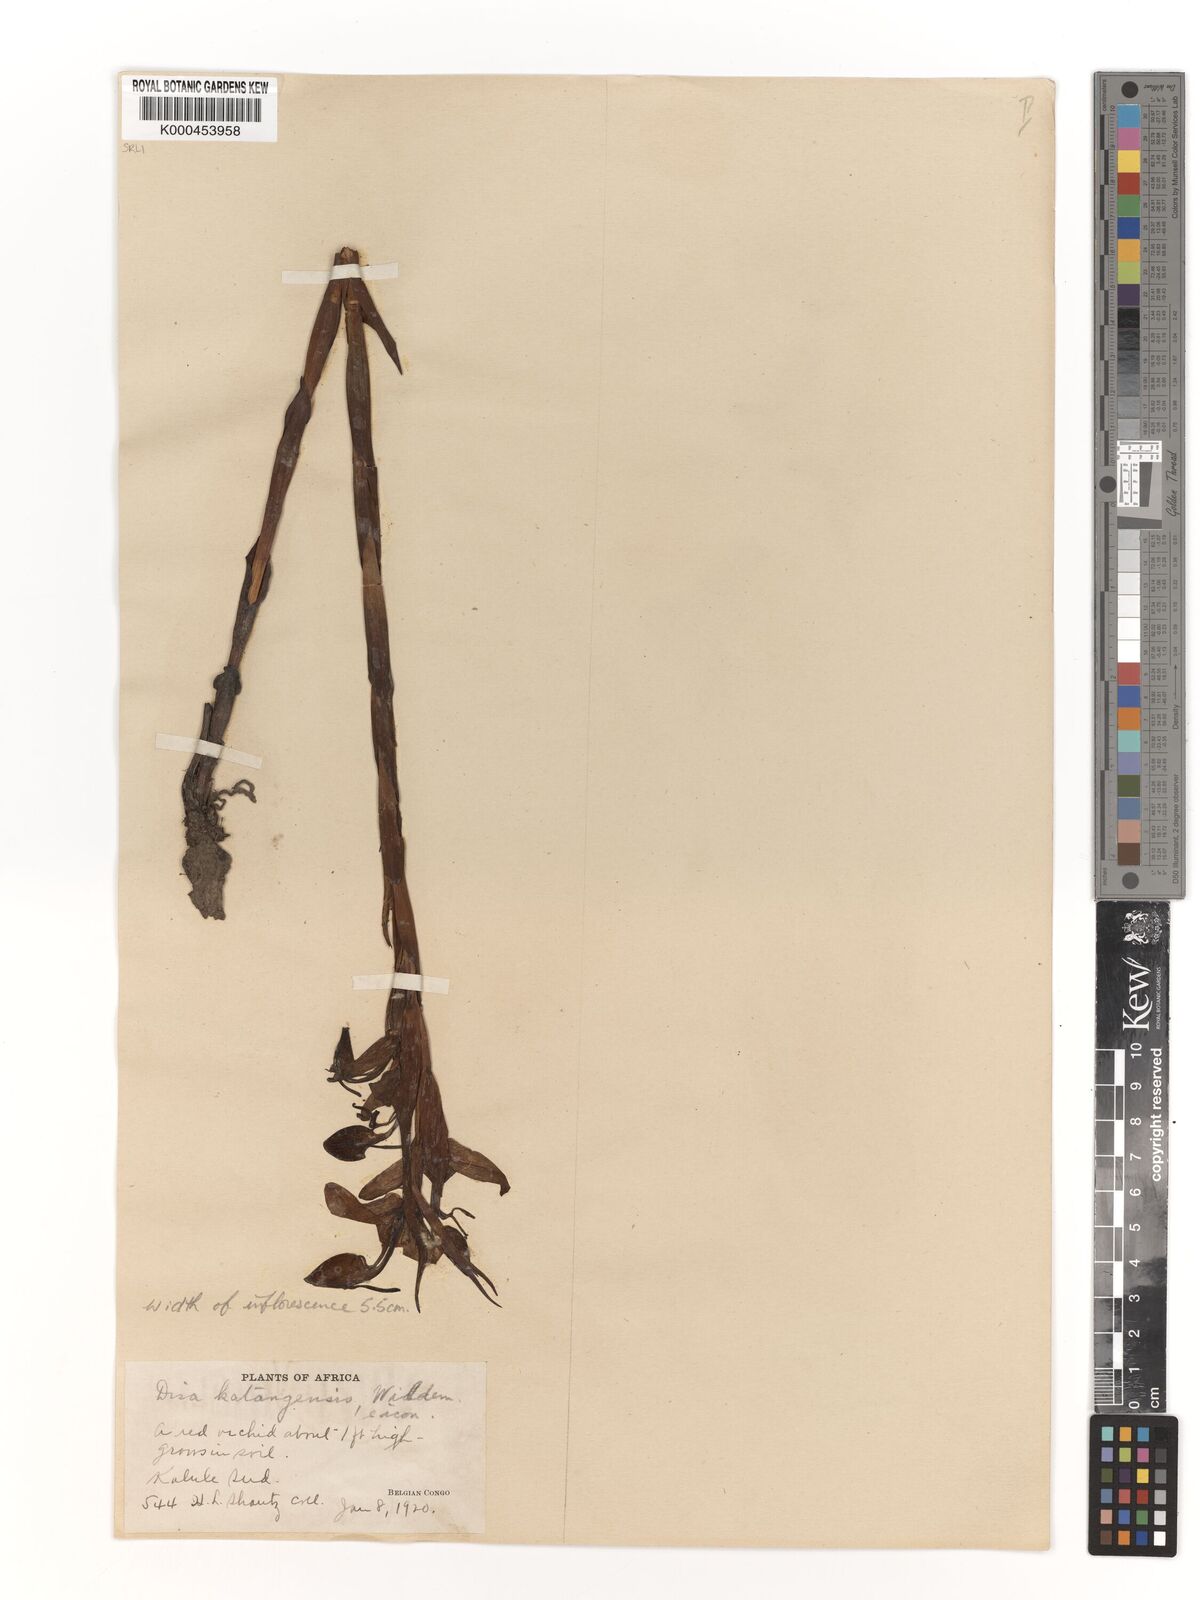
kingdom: Plantae
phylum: Tracheophyta
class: Liliopsida
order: Asparagales
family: Orchidaceae
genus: Disa
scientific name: Disa katangensis
